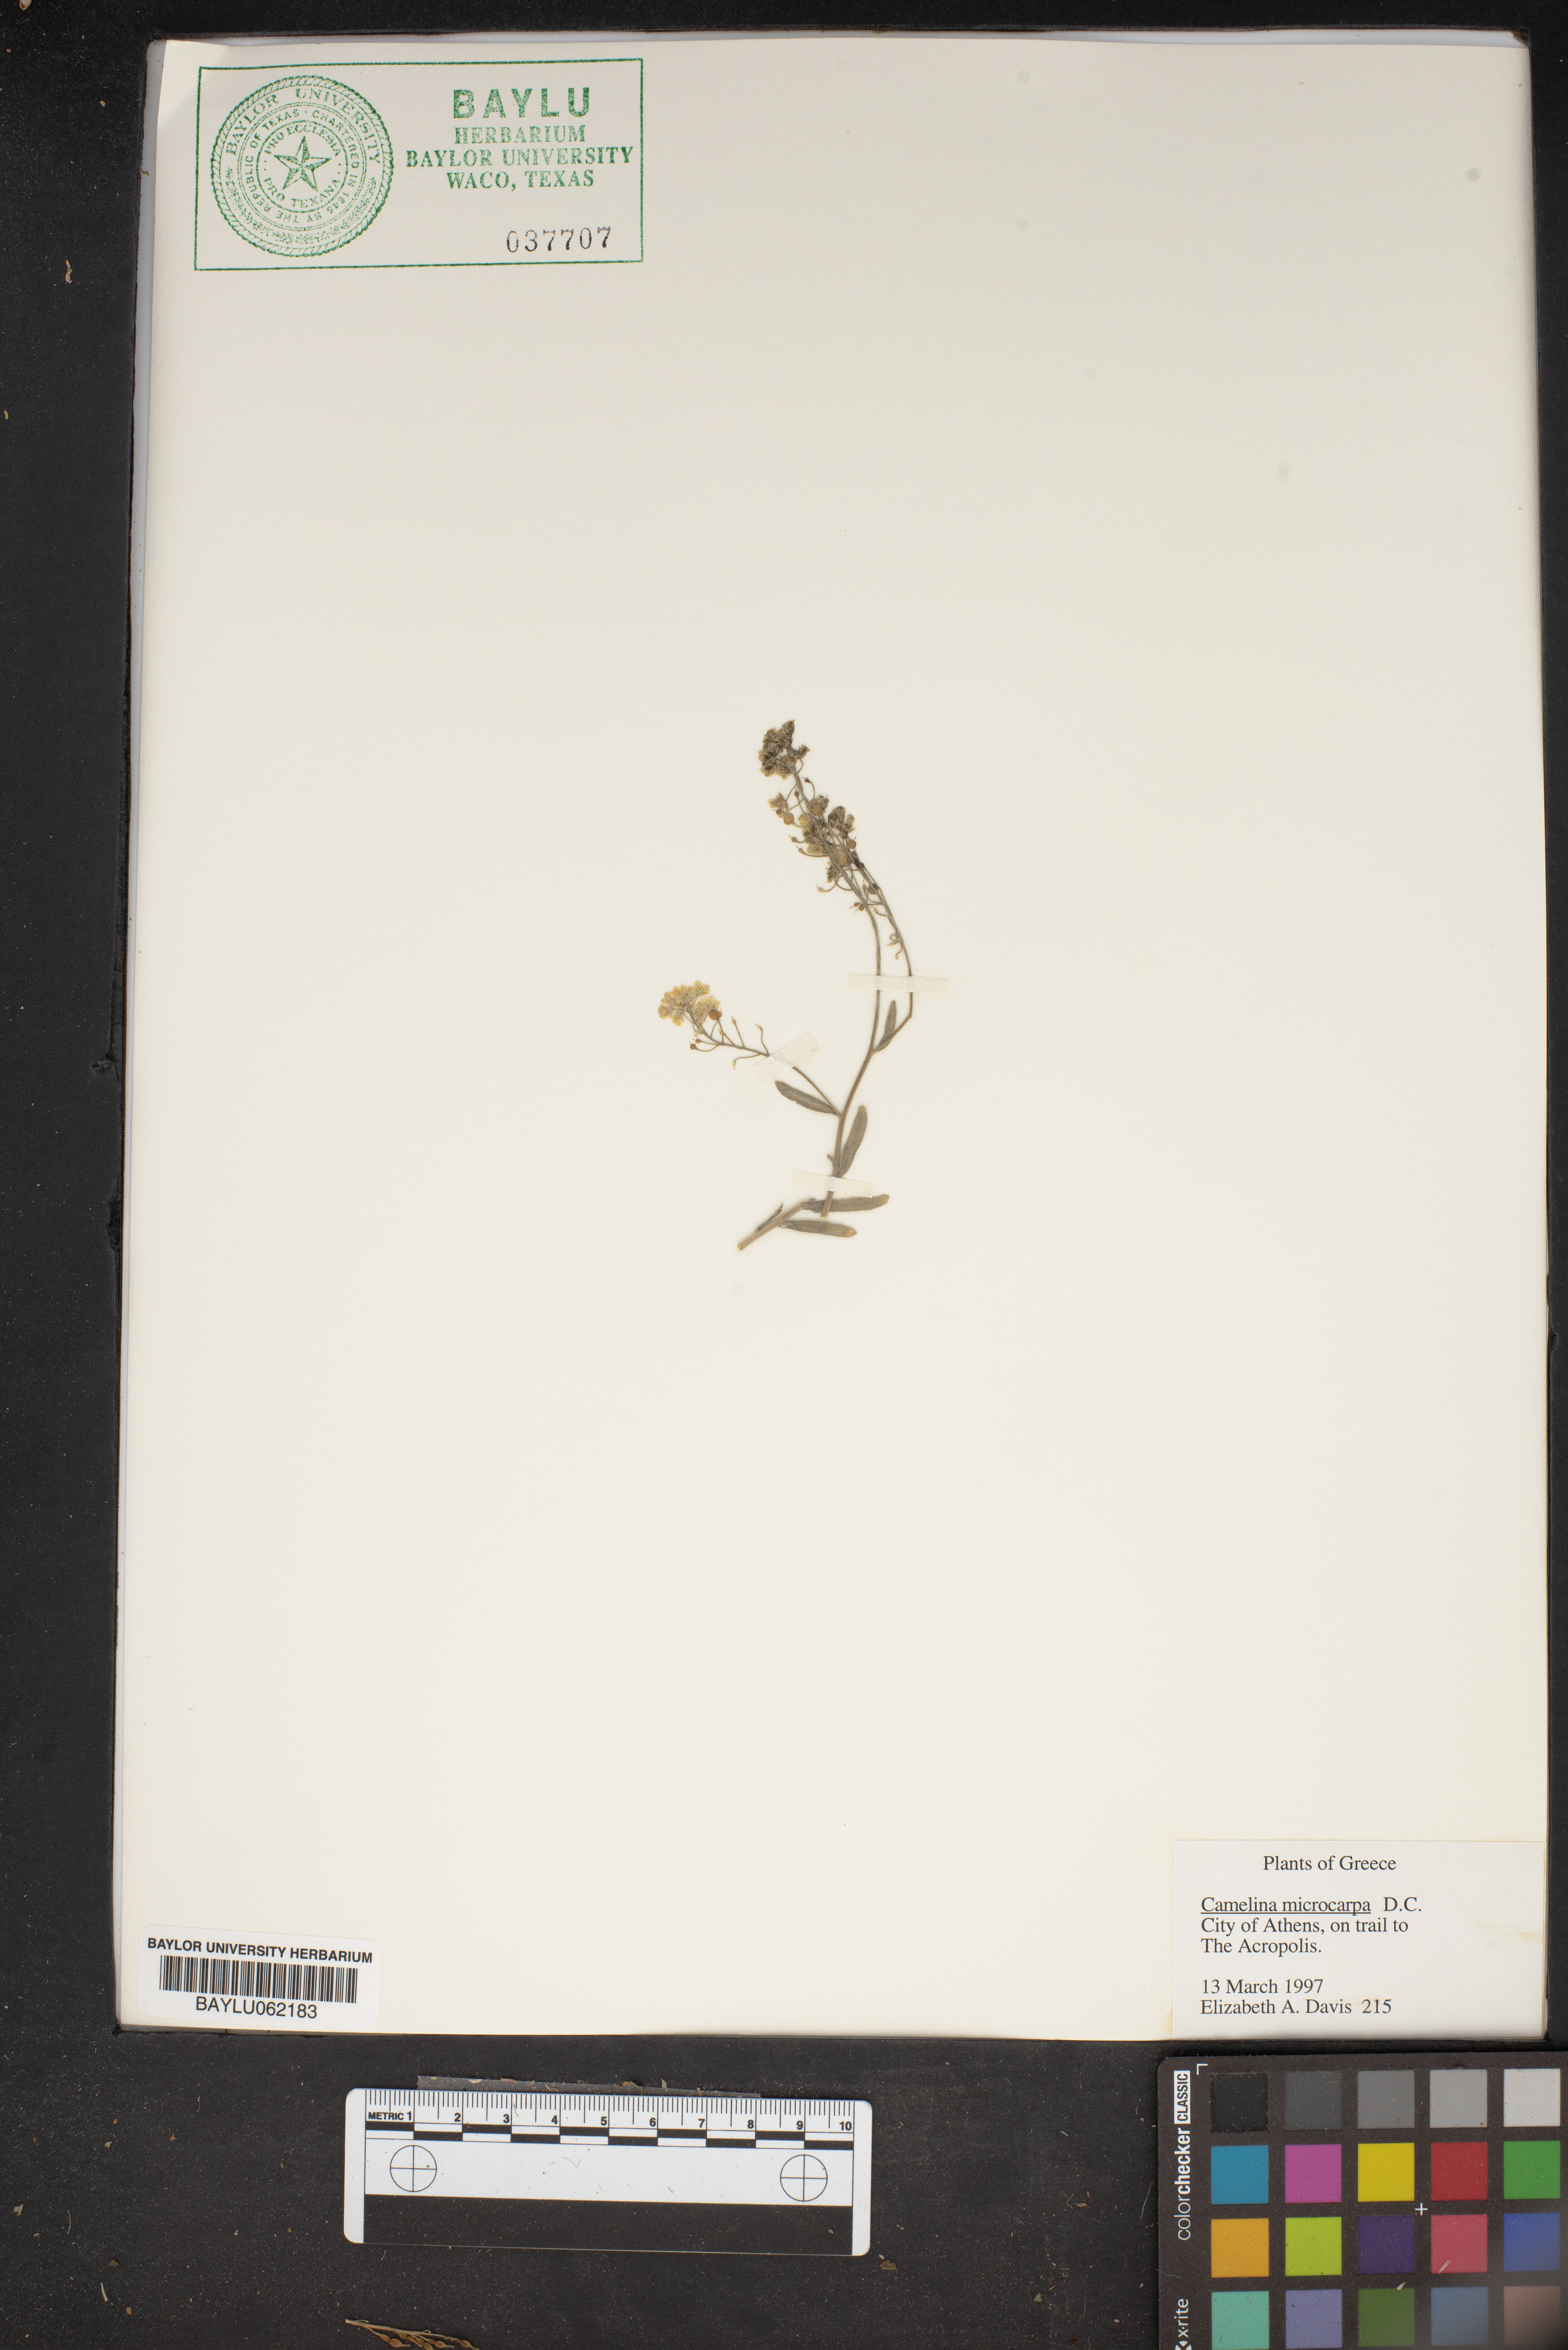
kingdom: Plantae
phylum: Tracheophyta
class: Magnoliopsida
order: Brassicales
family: Brassicaceae
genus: Camelina
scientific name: Camelina microcarpa
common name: Lesser gold-of-pleasure
